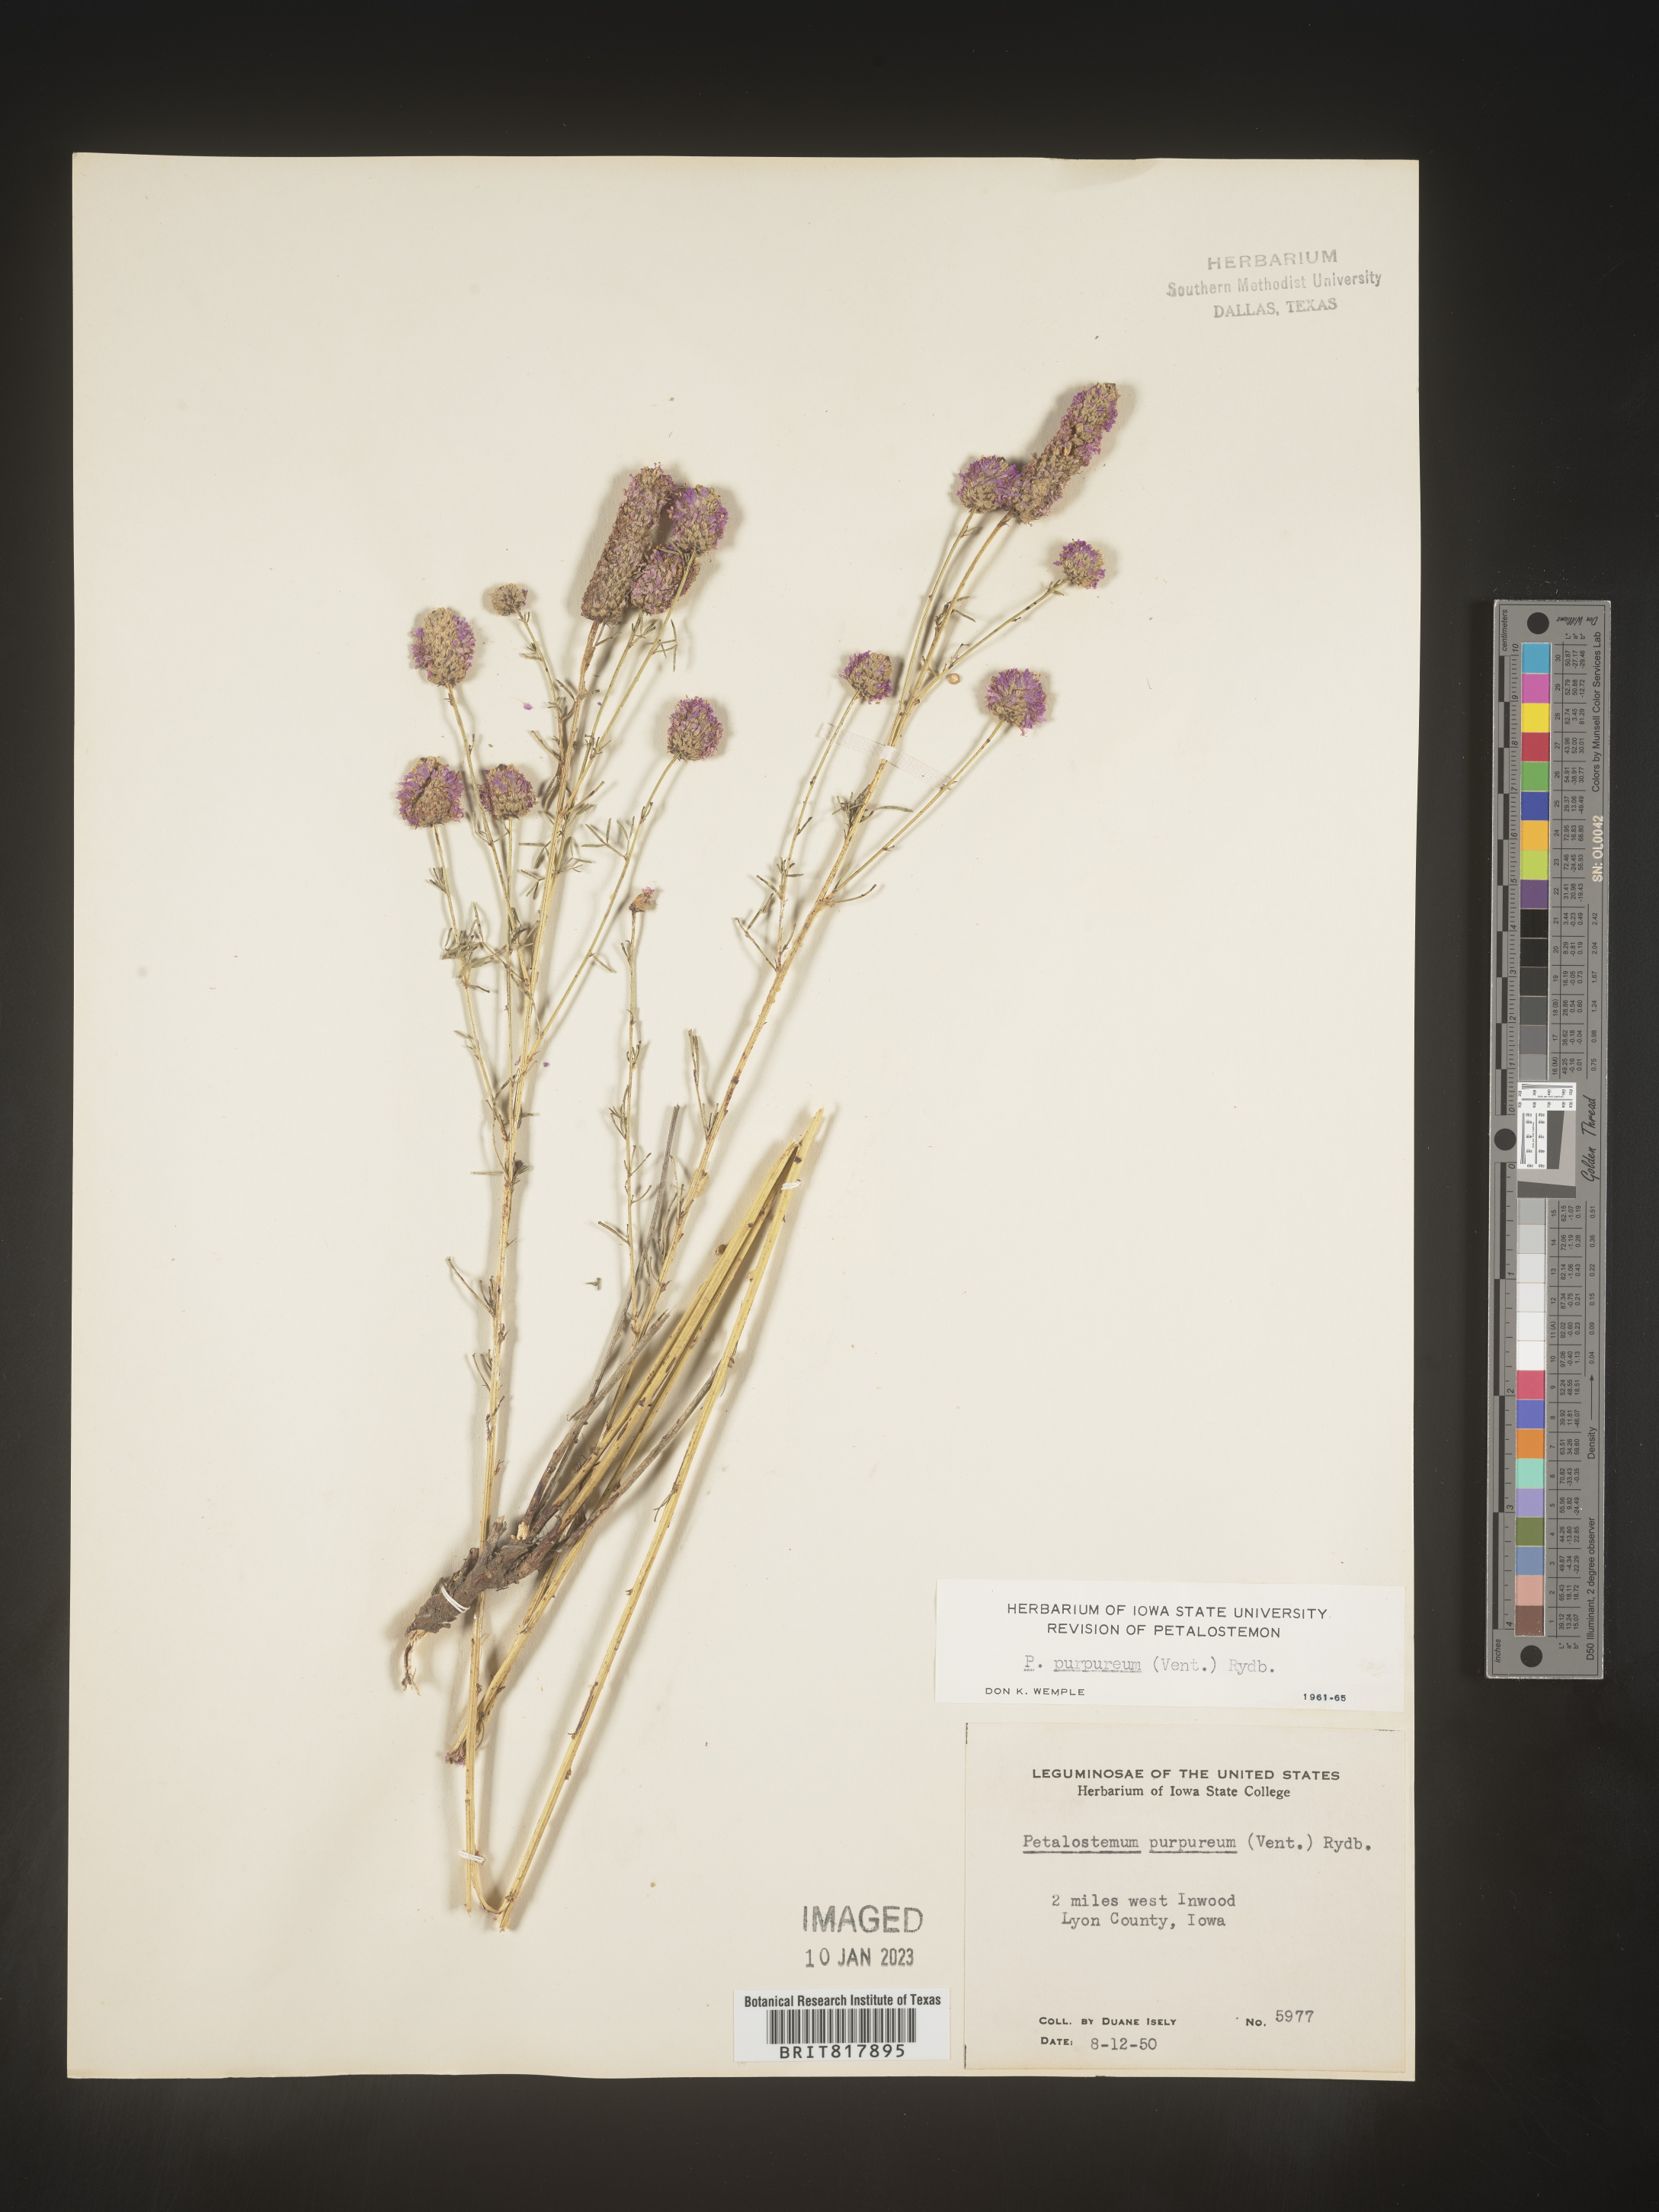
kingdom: Plantae
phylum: Tracheophyta
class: Magnoliopsida
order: Fabales
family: Fabaceae
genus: Dalea
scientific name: Dalea purpurea
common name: Purple prairie-clover
